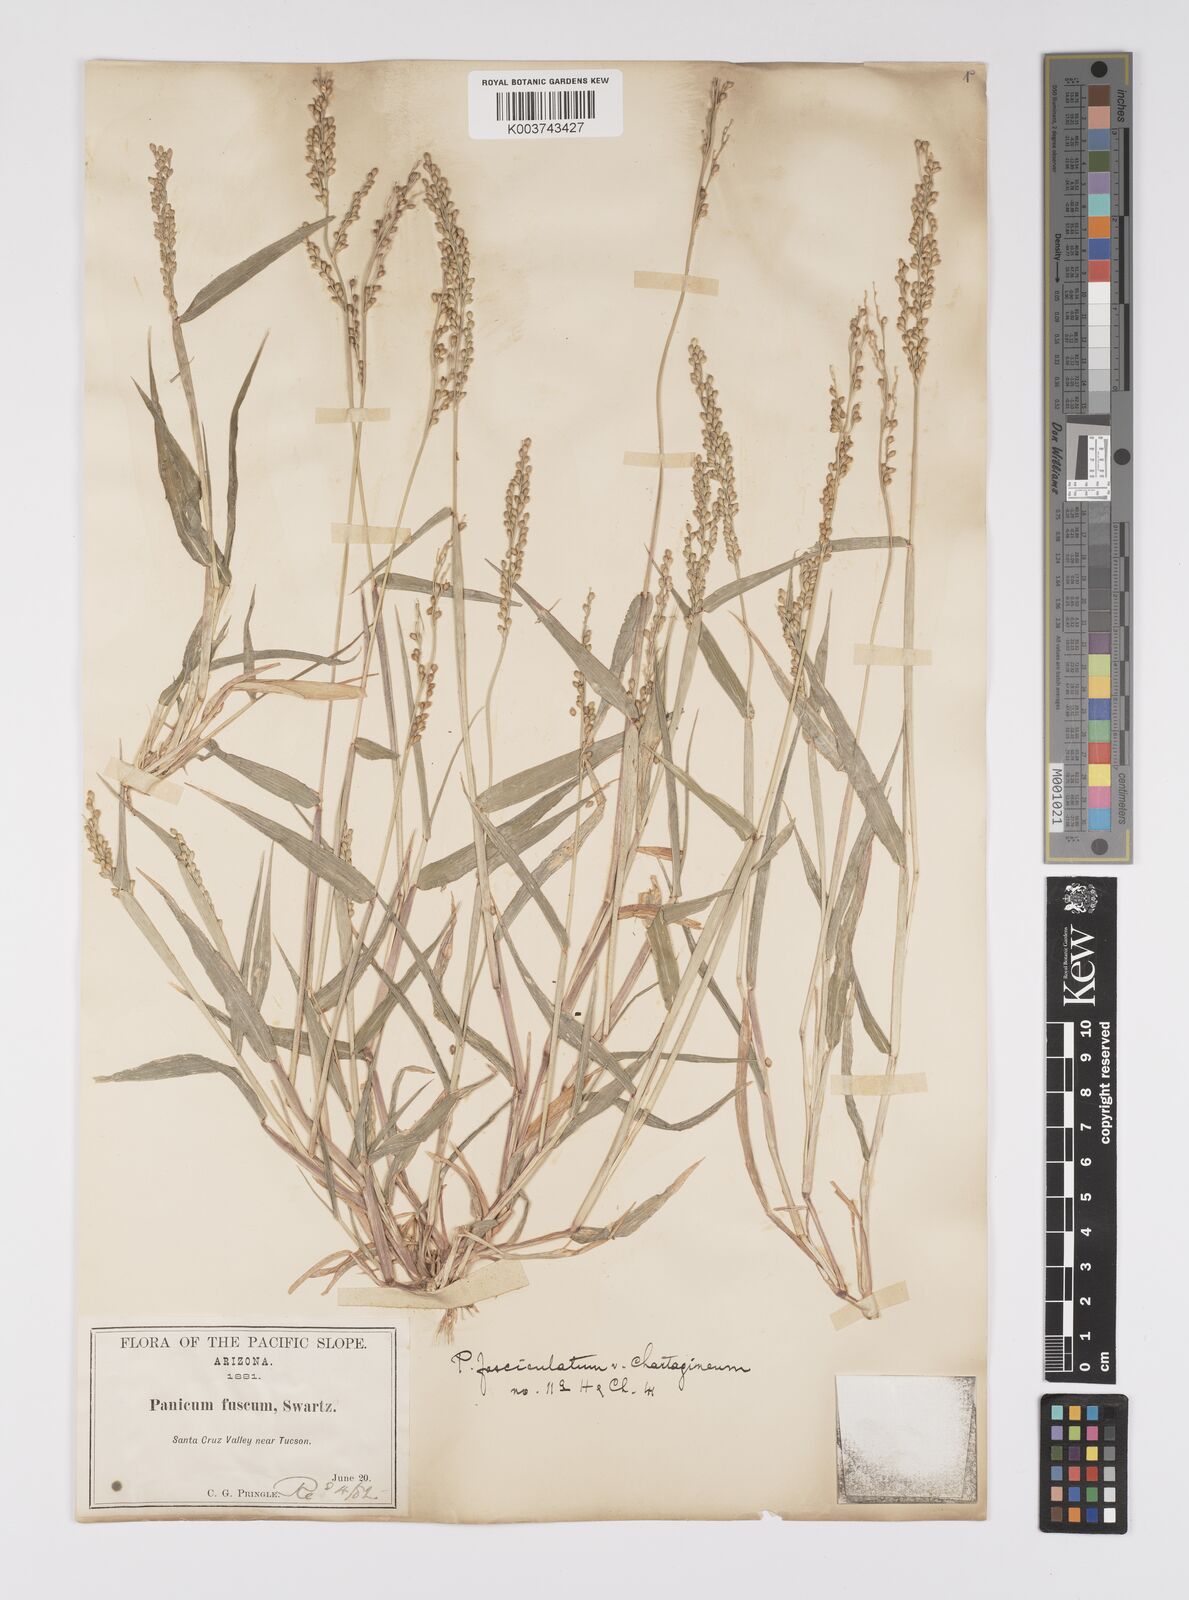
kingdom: Plantae
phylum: Tracheophyta
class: Liliopsida
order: Poales
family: Poaceae
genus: Urochloa
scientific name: Urochloa fusca
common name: Browntop signal grass
